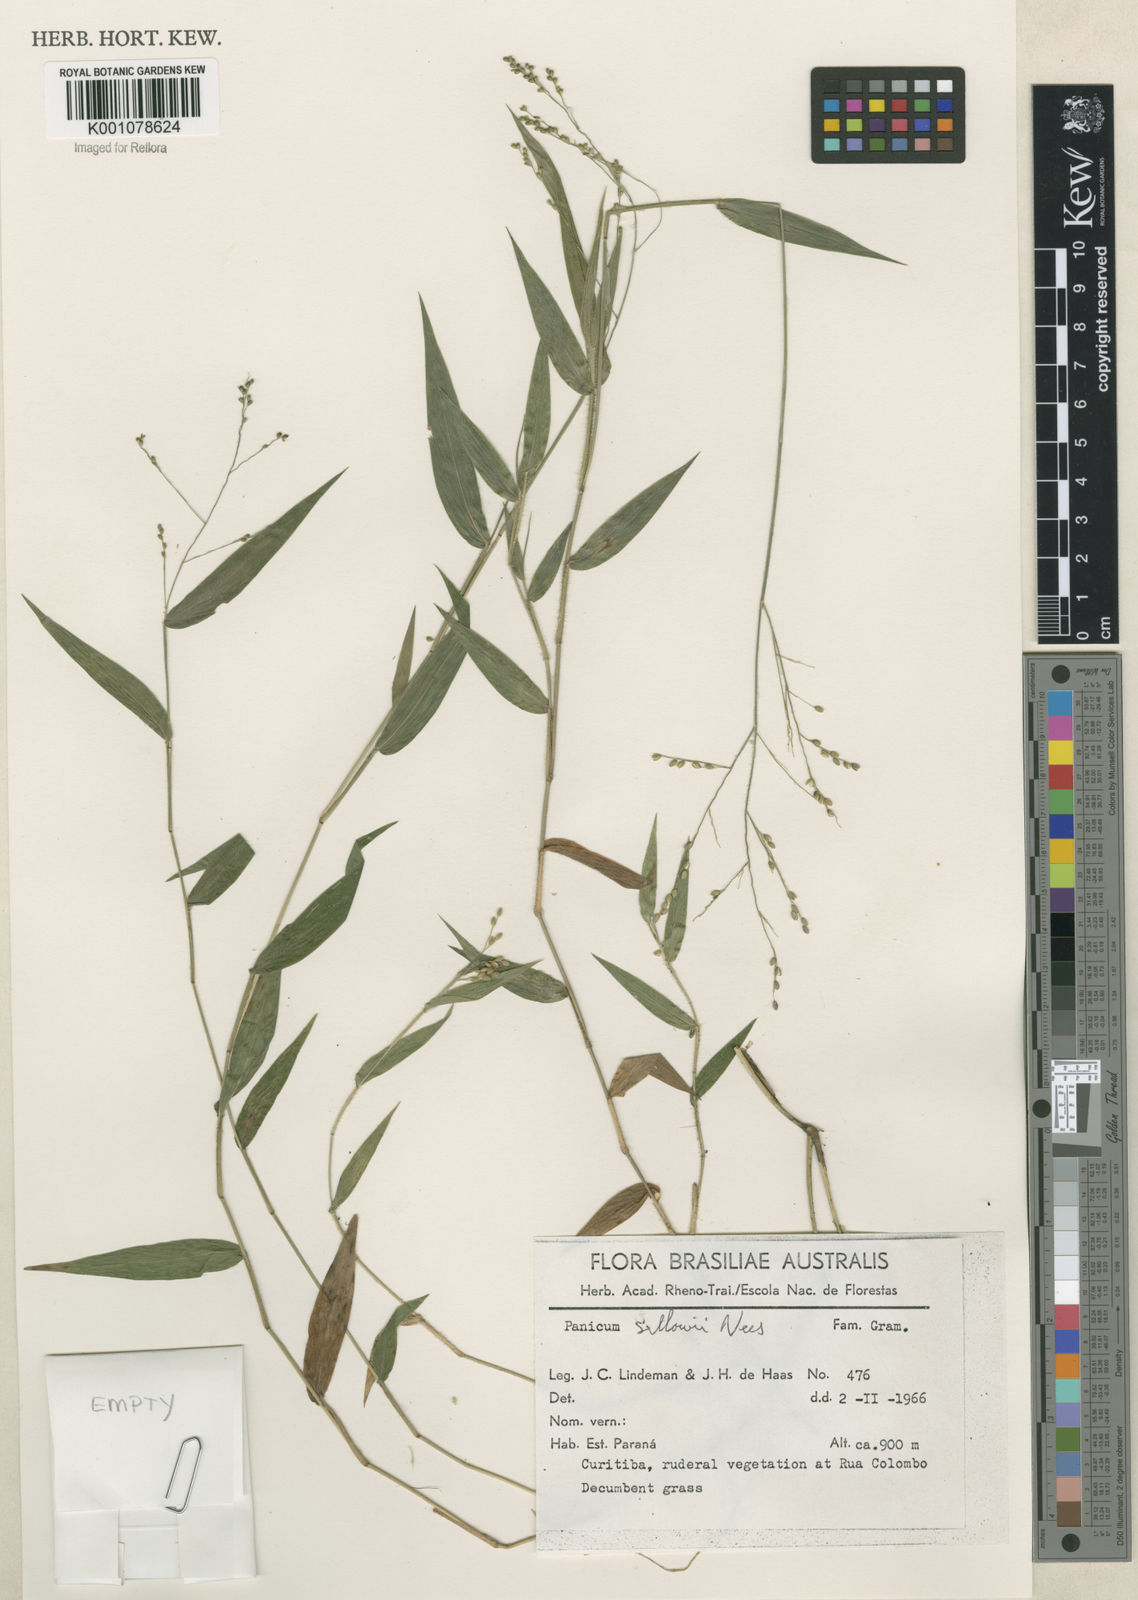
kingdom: Plantae
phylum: Tracheophyta
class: Liliopsida
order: Poales
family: Poaceae
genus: Panicum
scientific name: Panicum sellowii
